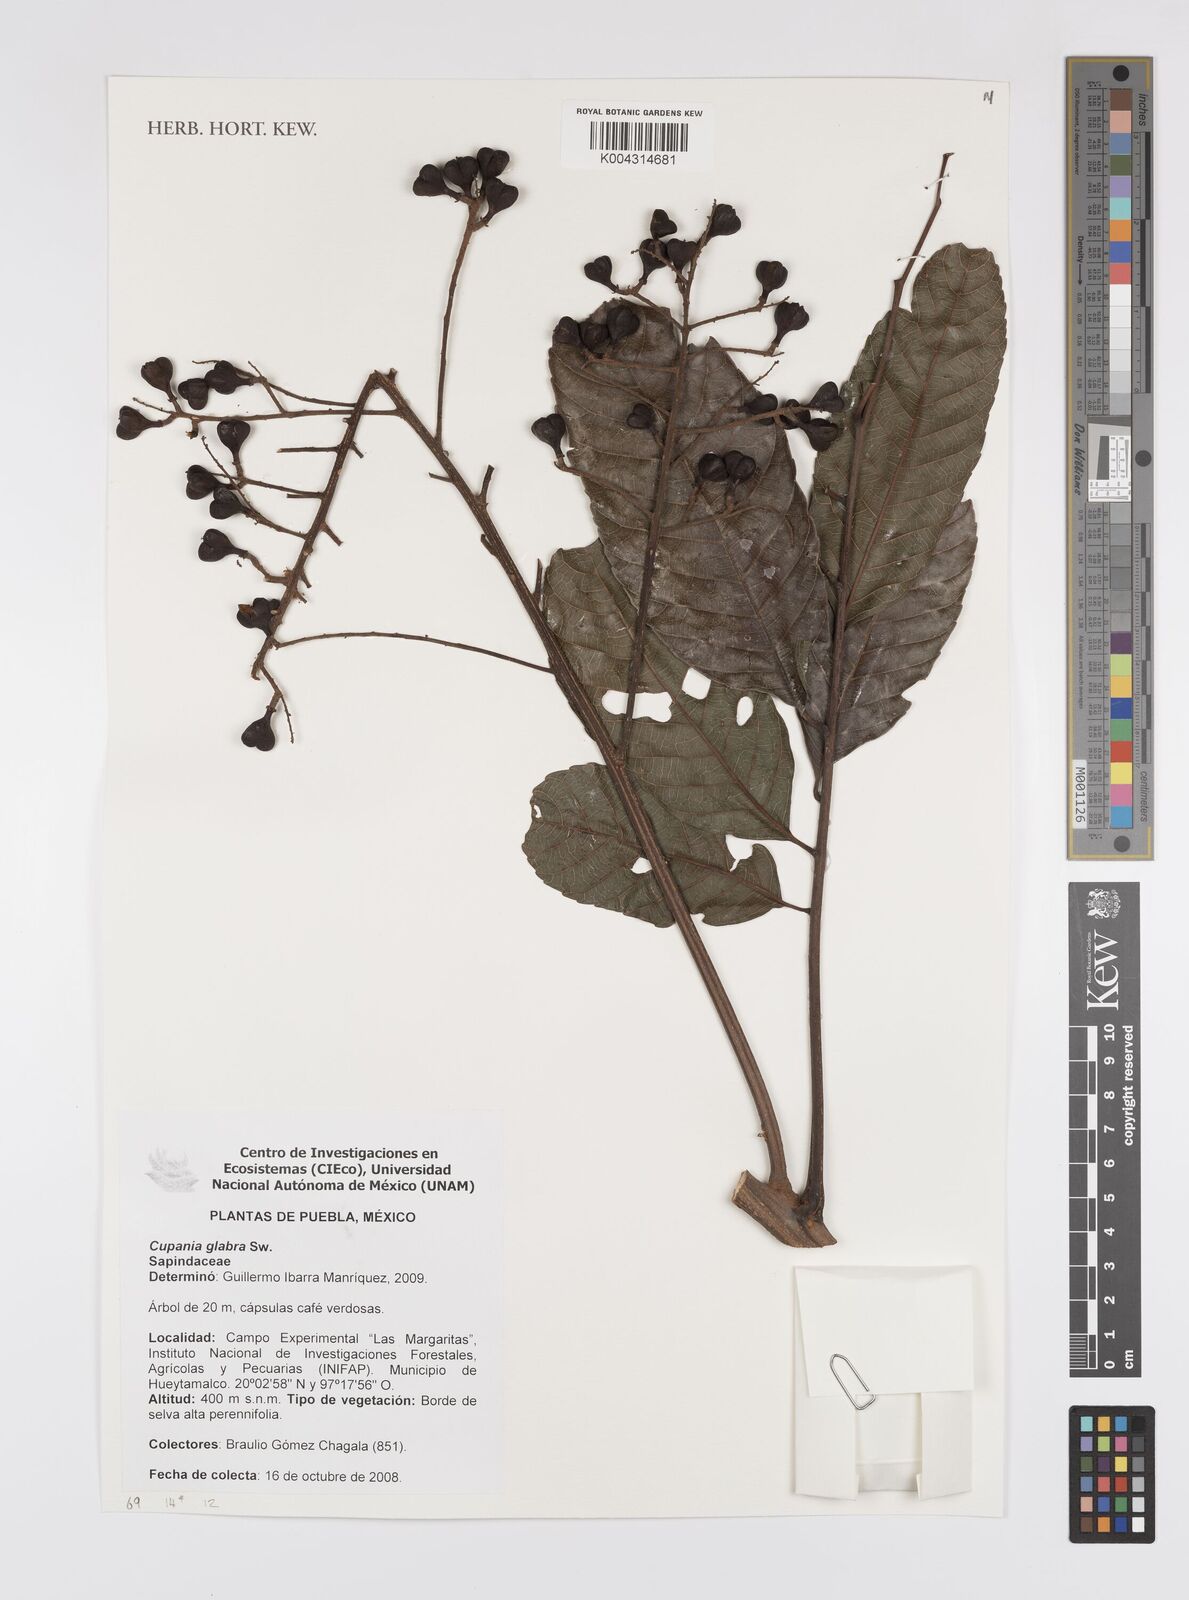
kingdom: Plantae
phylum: Tracheophyta
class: Magnoliopsida
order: Sapindales
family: Sapindaceae
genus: Cupania
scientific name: Cupania
